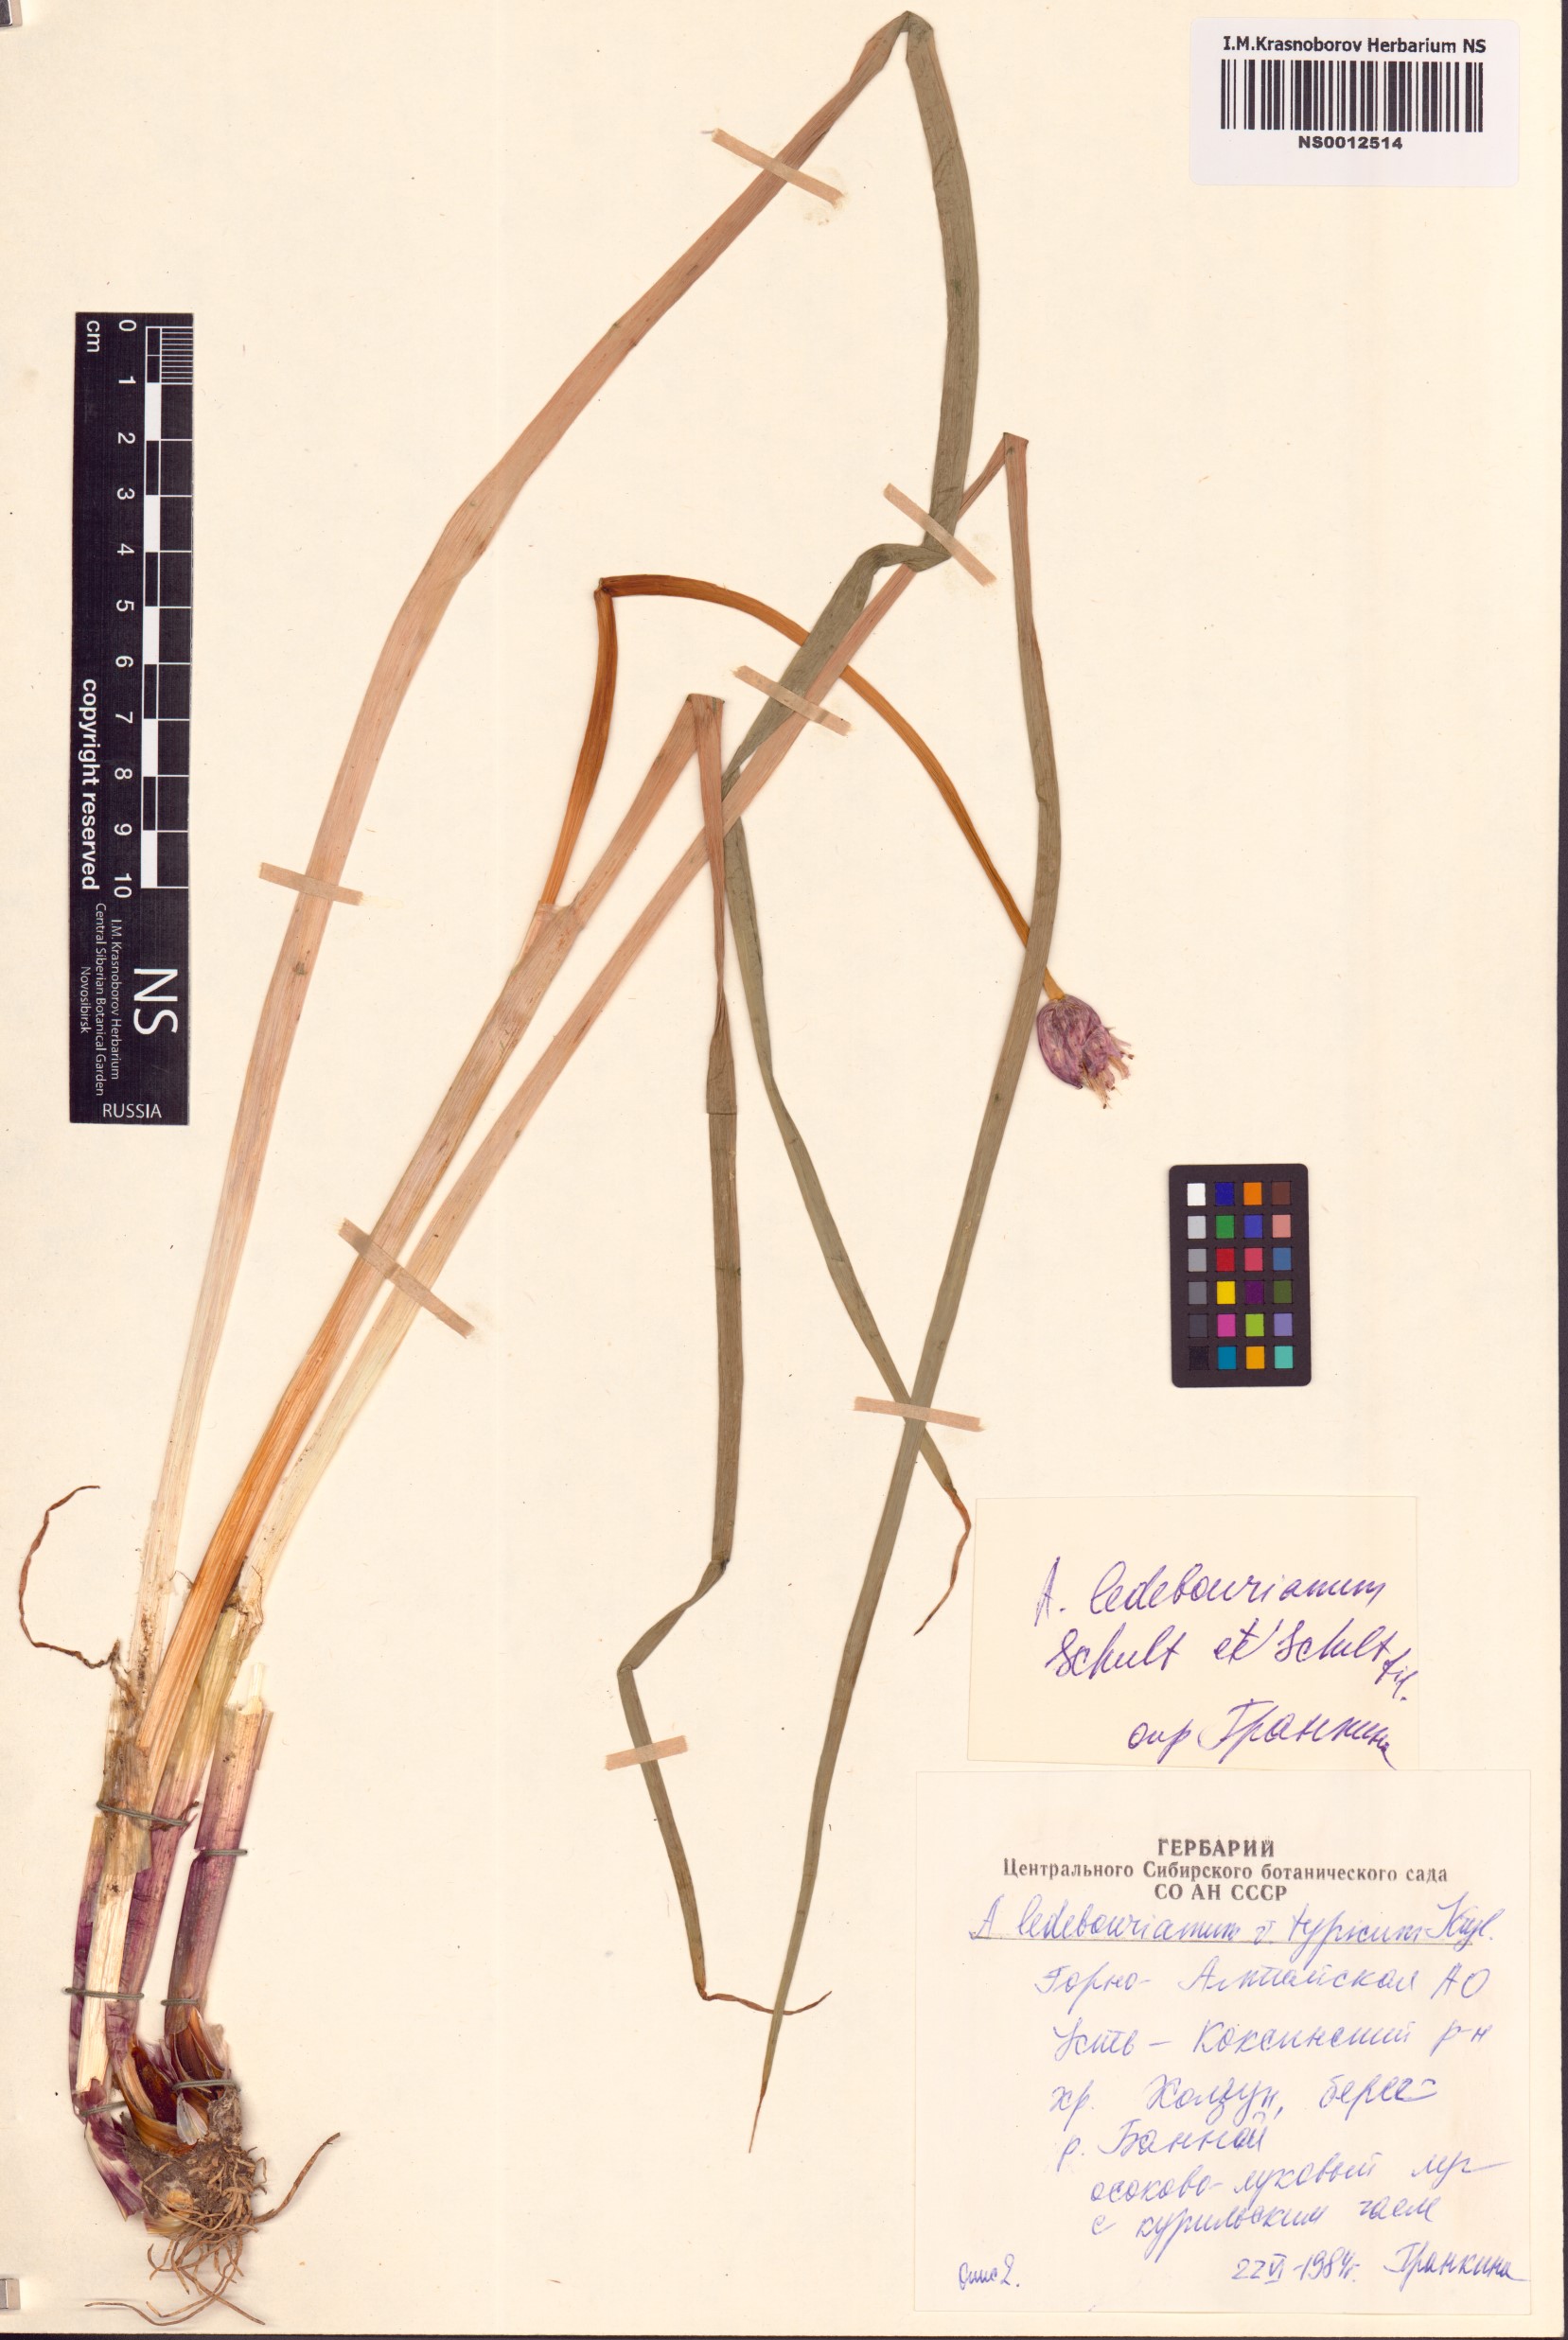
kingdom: Plantae
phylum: Tracheophyta
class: Liliopsida
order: Asparagales
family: Amaryllidaceae
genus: Allium
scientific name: Allium ledebourianum
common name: Ledebour chive
